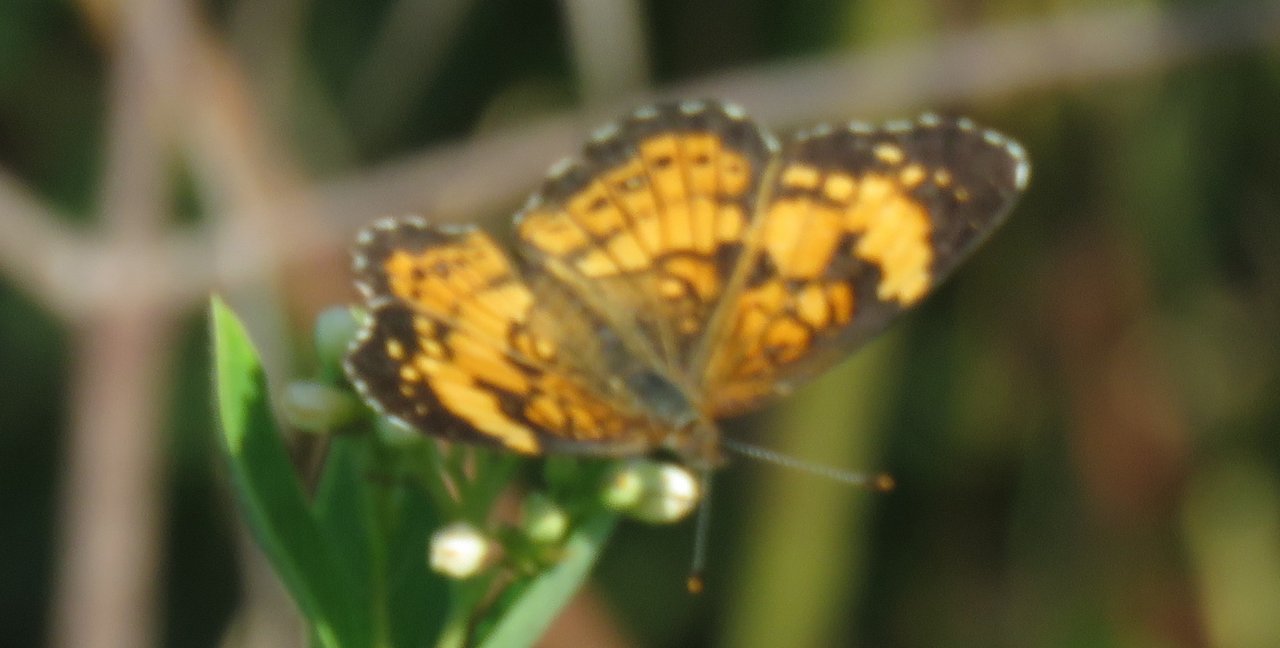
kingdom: Animalia
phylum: Arthropoda
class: Insecta
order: Lepidoptera
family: Nymphalidae
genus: Chlosyne
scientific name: Chlosyne nycteis
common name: Silvery Checkerspot
